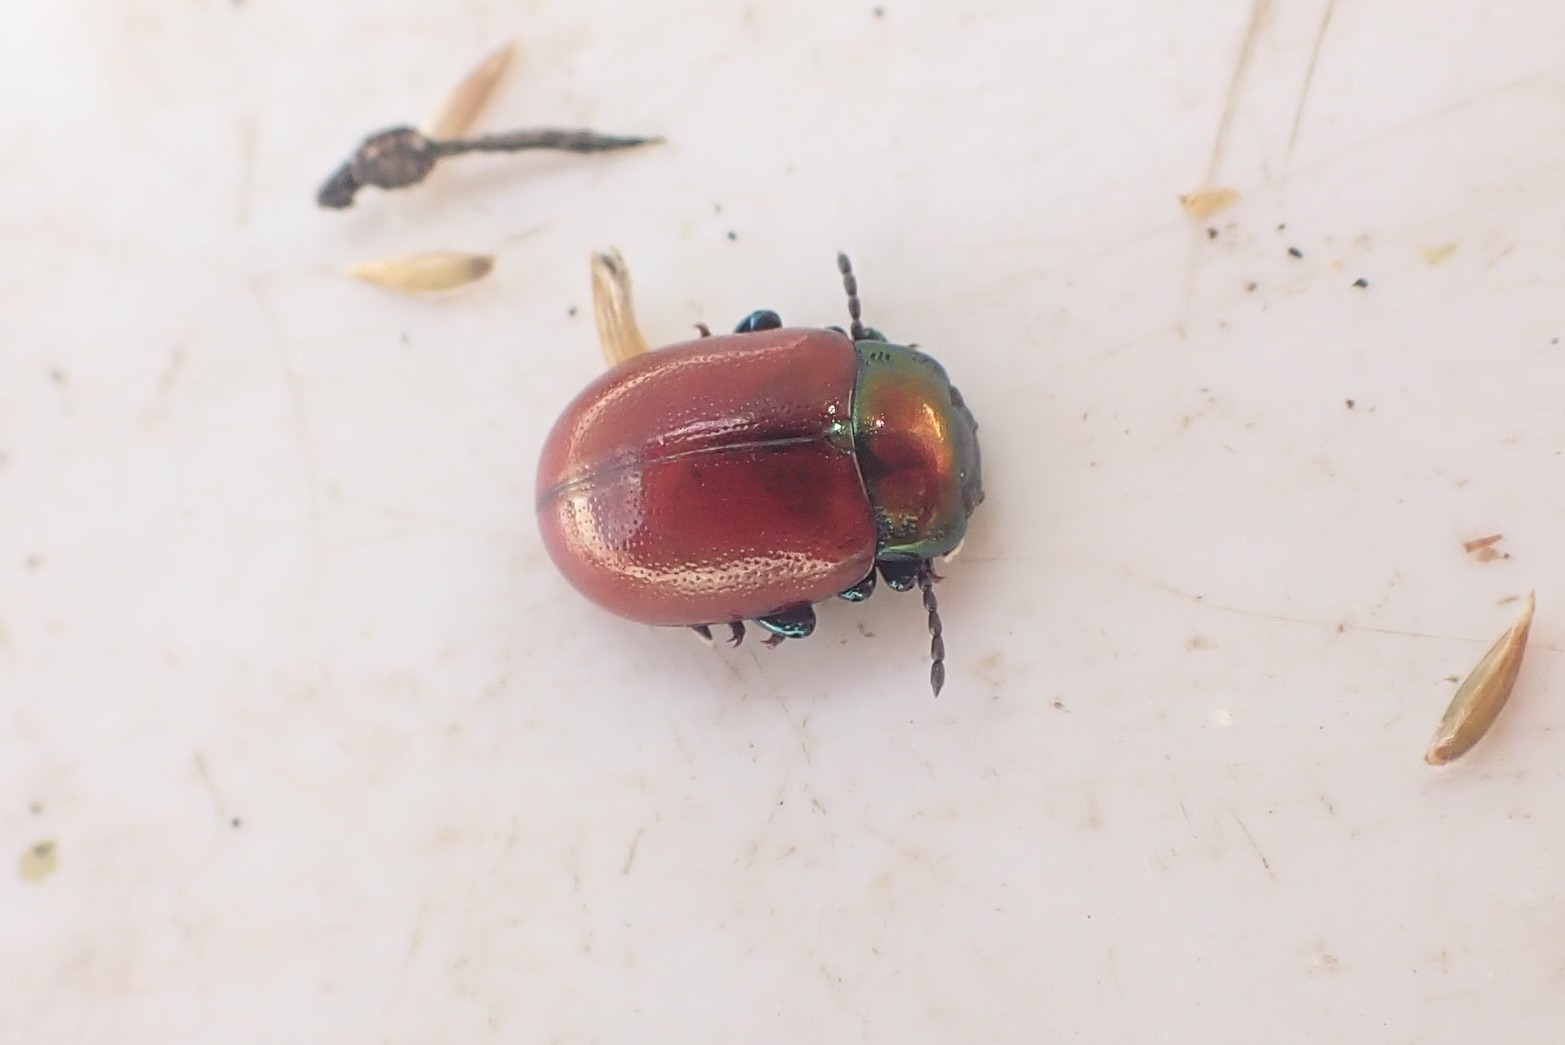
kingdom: Animalia
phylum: Arthropoda
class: Insecta
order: Coleoptera
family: Chrysomelidae
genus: Chrysomela
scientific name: Chrysomela polita
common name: Forskelligfarvet guldbille
